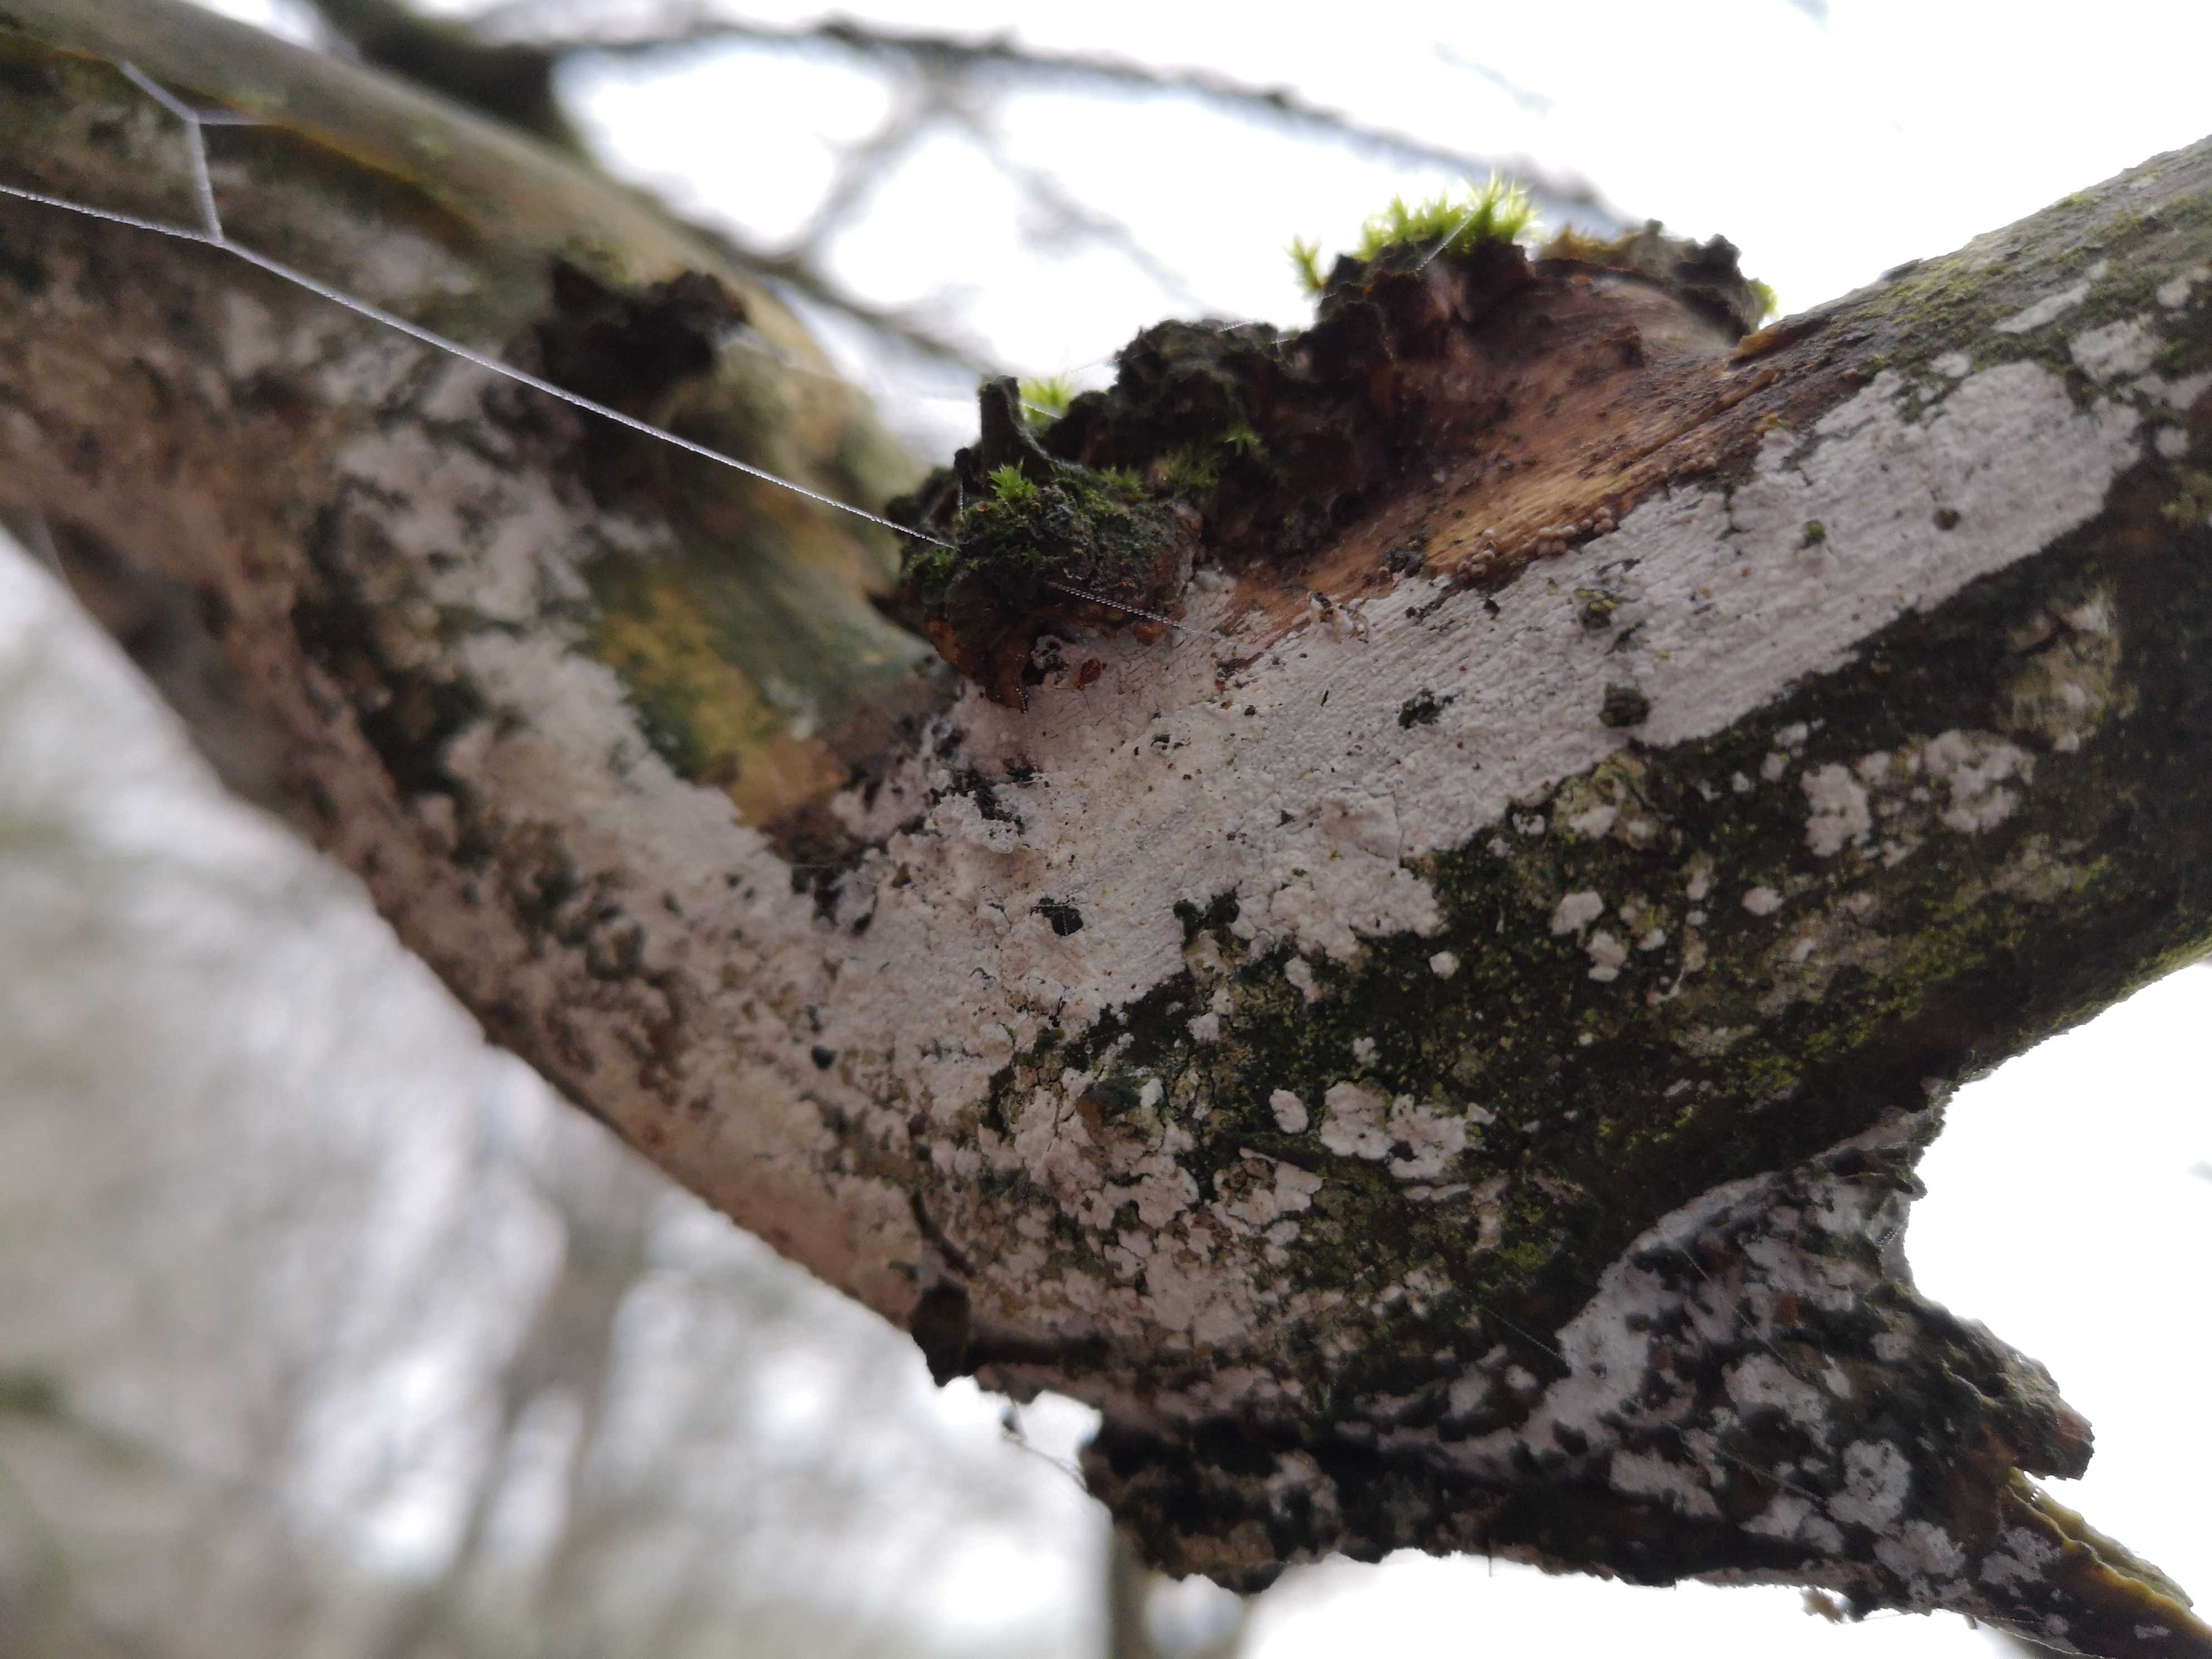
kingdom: Fungi
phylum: Basidiomycota
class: Agaricomycetes
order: Corticiales
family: Corticiaceae
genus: Lyomyces
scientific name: Lyomyces sambuci
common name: almindelig hyldehinde
